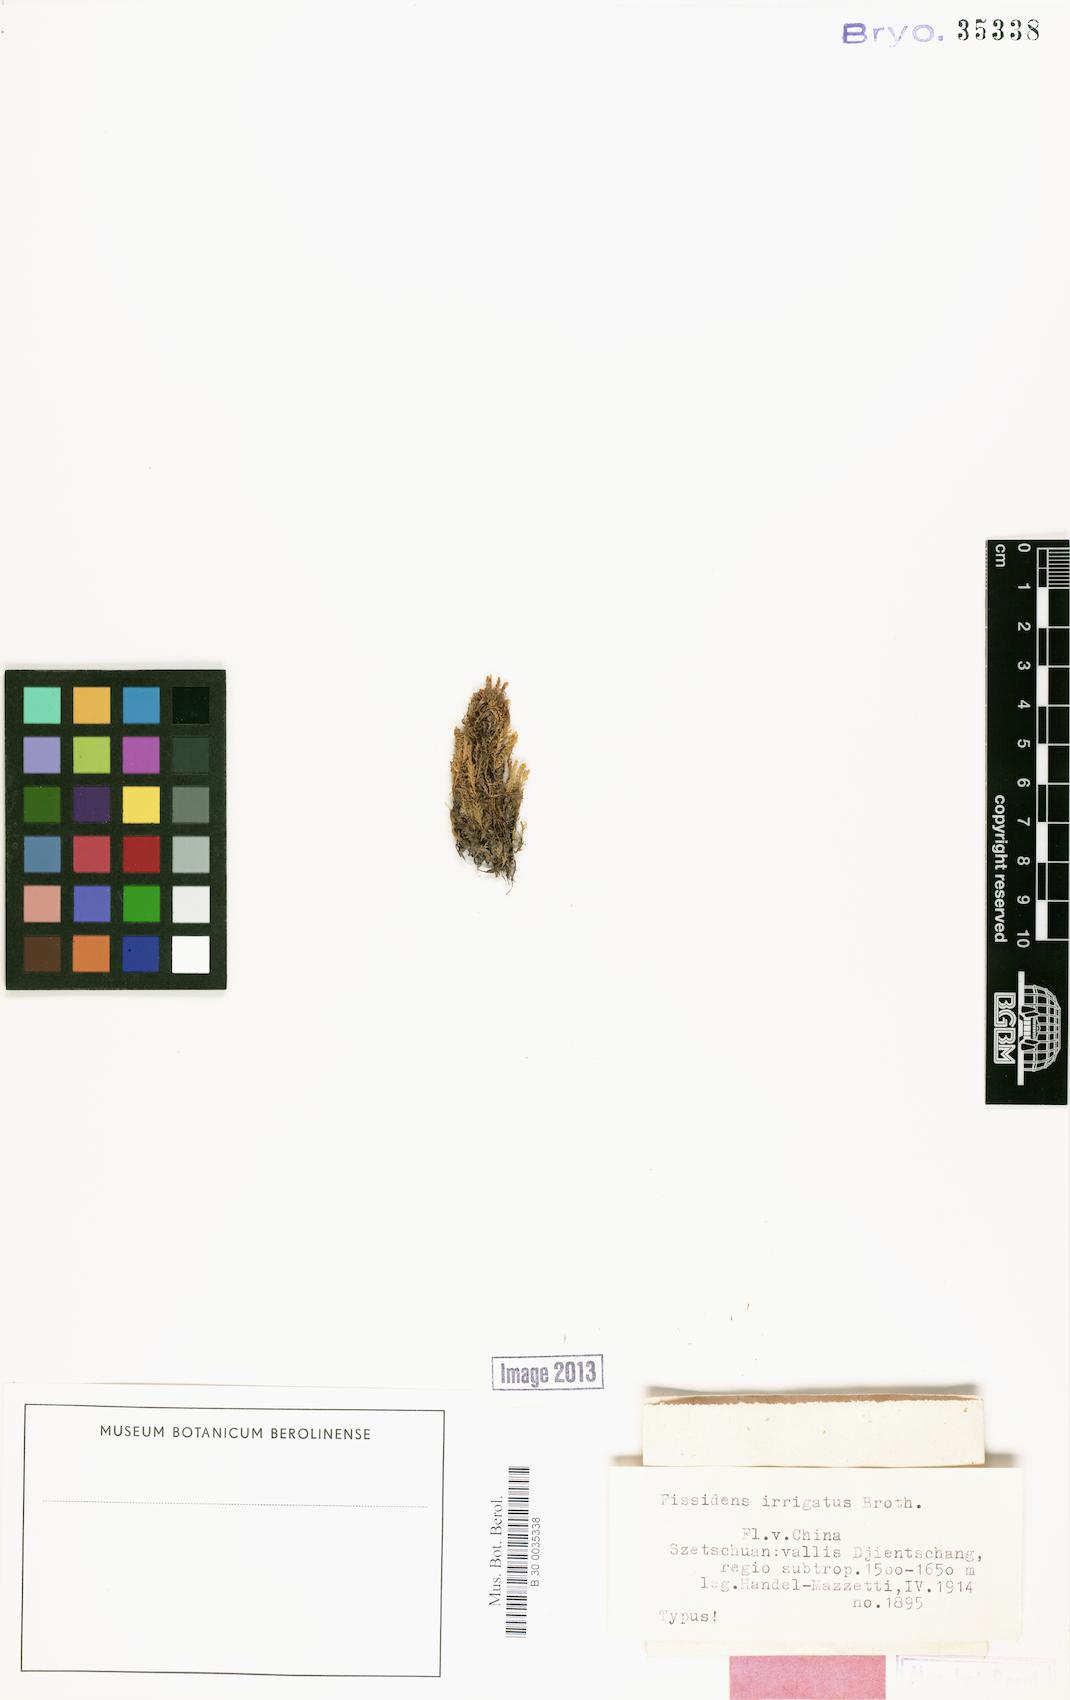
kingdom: Plantae
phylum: Bryophyta
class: Bryopsida
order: Dicranales
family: Fissidentaceae
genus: Fissidens
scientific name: Fissidens involutus
